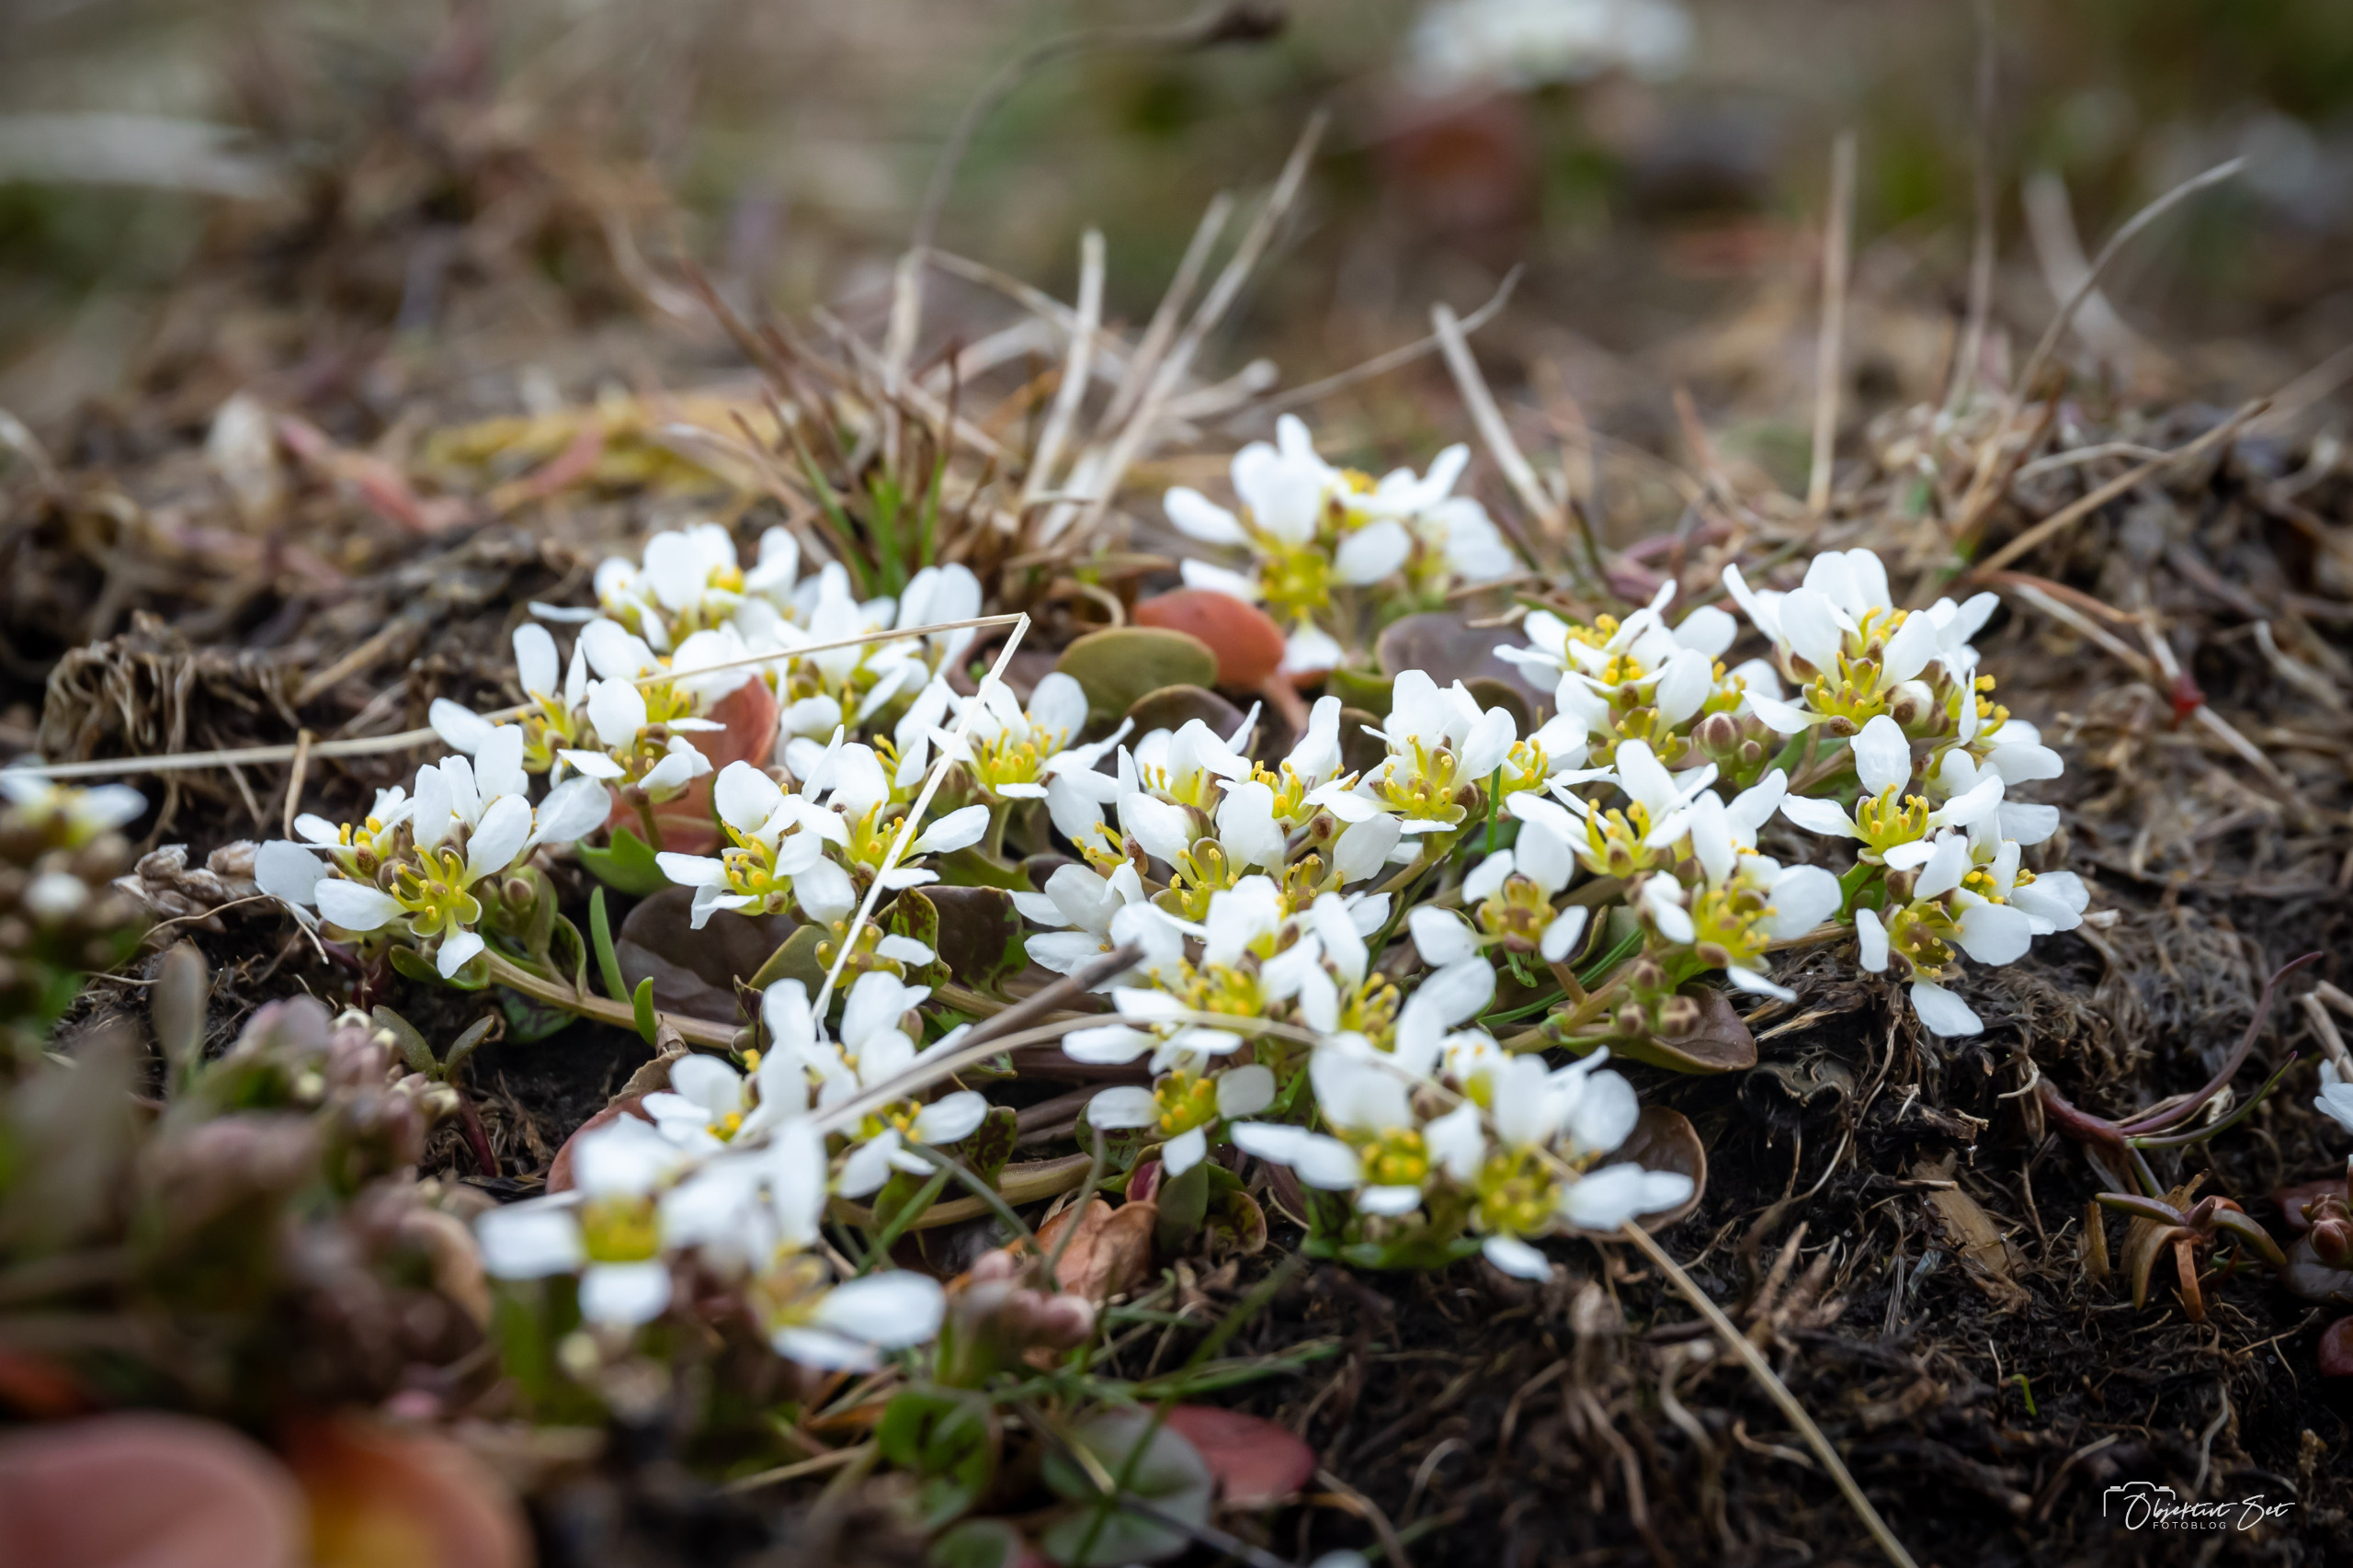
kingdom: Plantae
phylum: Tracheophyta
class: Magnoliopsida
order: Brassicales
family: Brassicaceae
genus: Cochlearia
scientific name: Cochlearia officinalis
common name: Læge-kokleare
